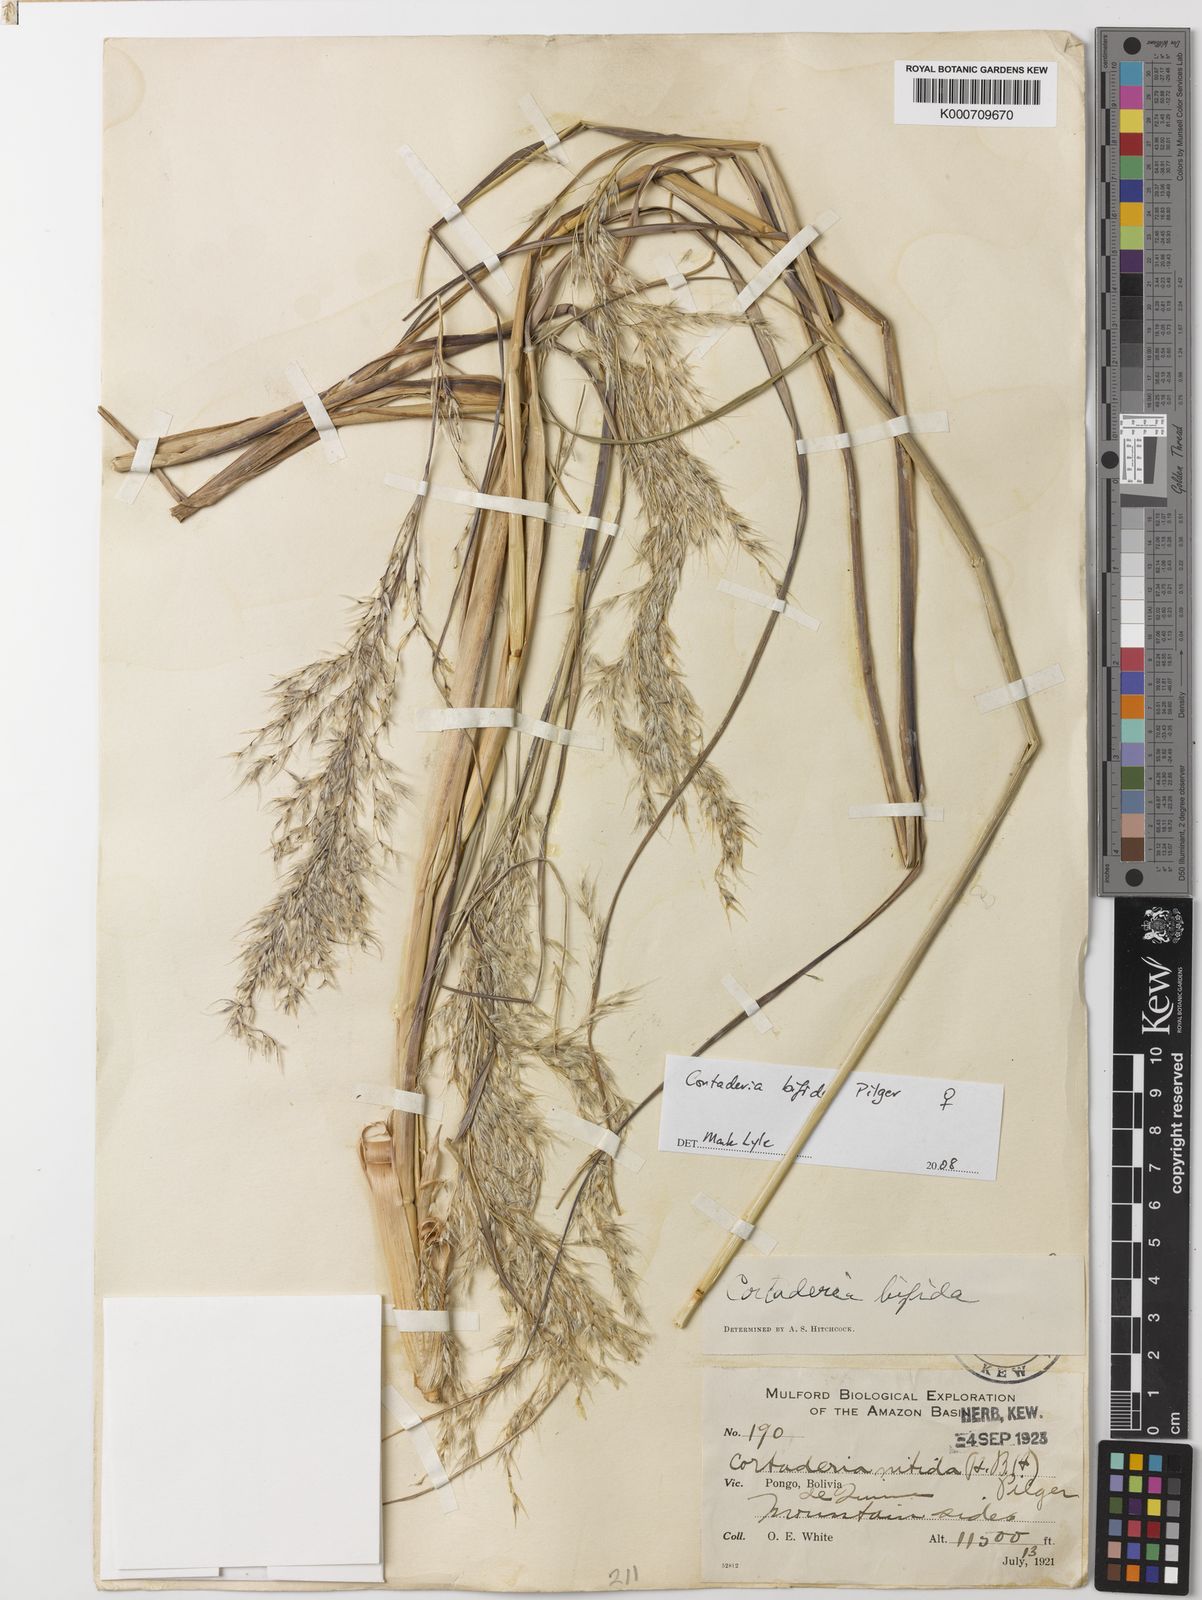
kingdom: Plantae
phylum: Tracheophyta
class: Liliopsida
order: Poales
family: Poaceae
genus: Cortaderia
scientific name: Cortaderia bifida
